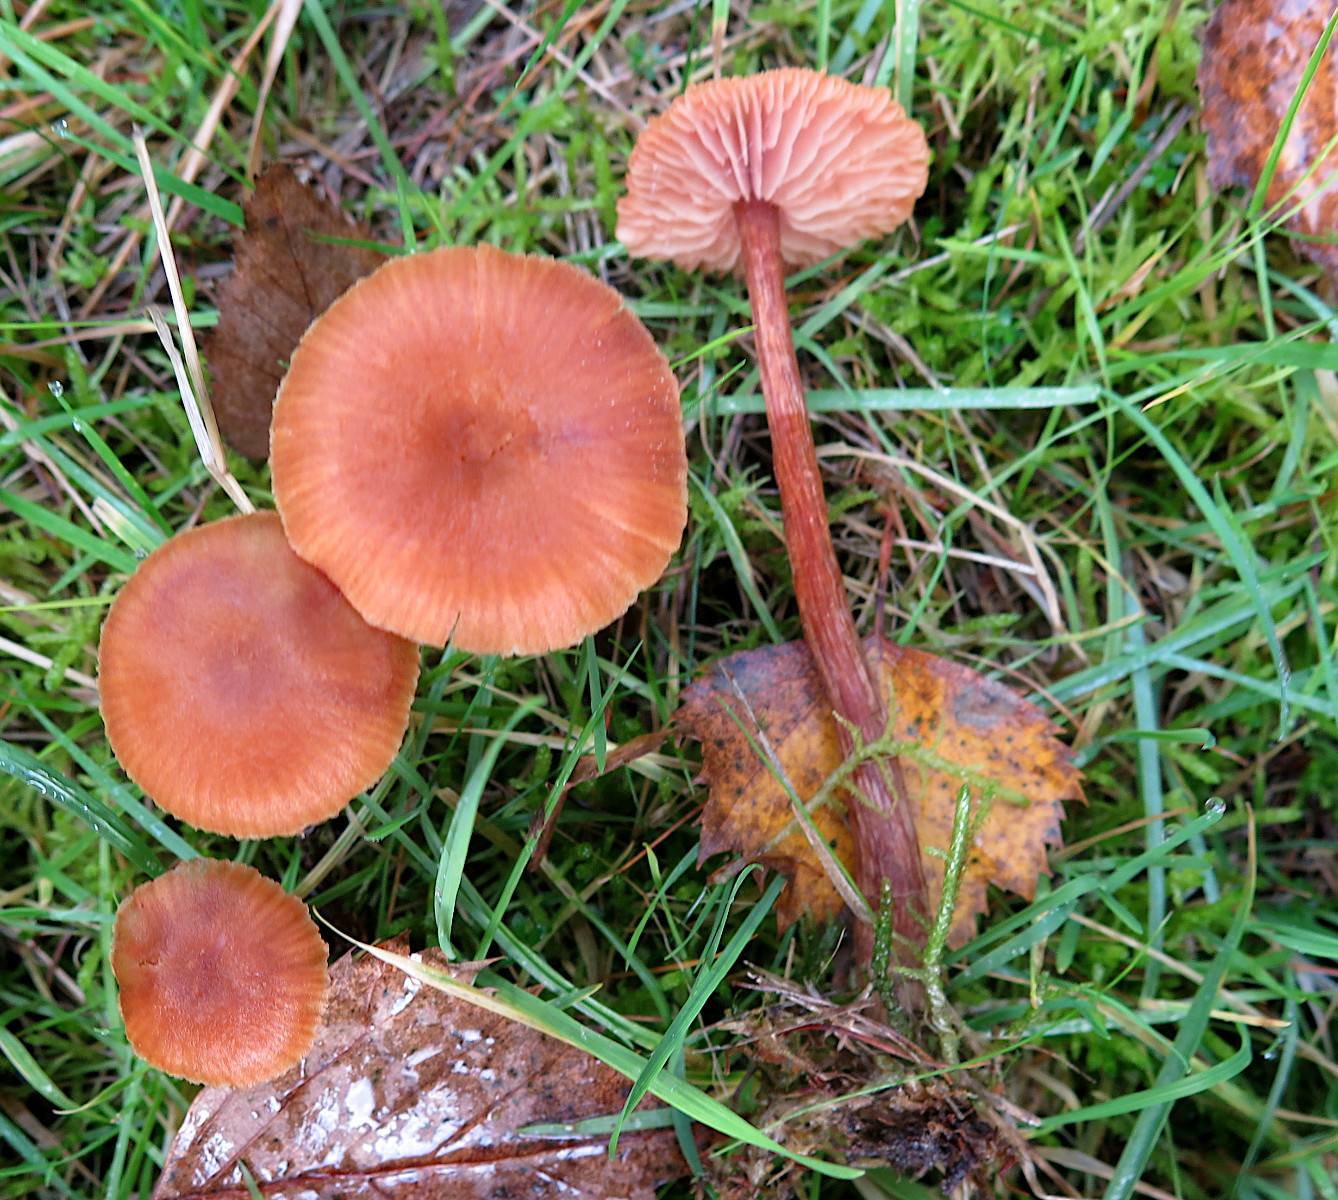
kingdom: Fungi
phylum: Basidiomycota
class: Agaricomycetes
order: Agaricales
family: Hydnangiaceae
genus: Laccaria
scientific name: Laccaria proxima
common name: stor ametysthat
